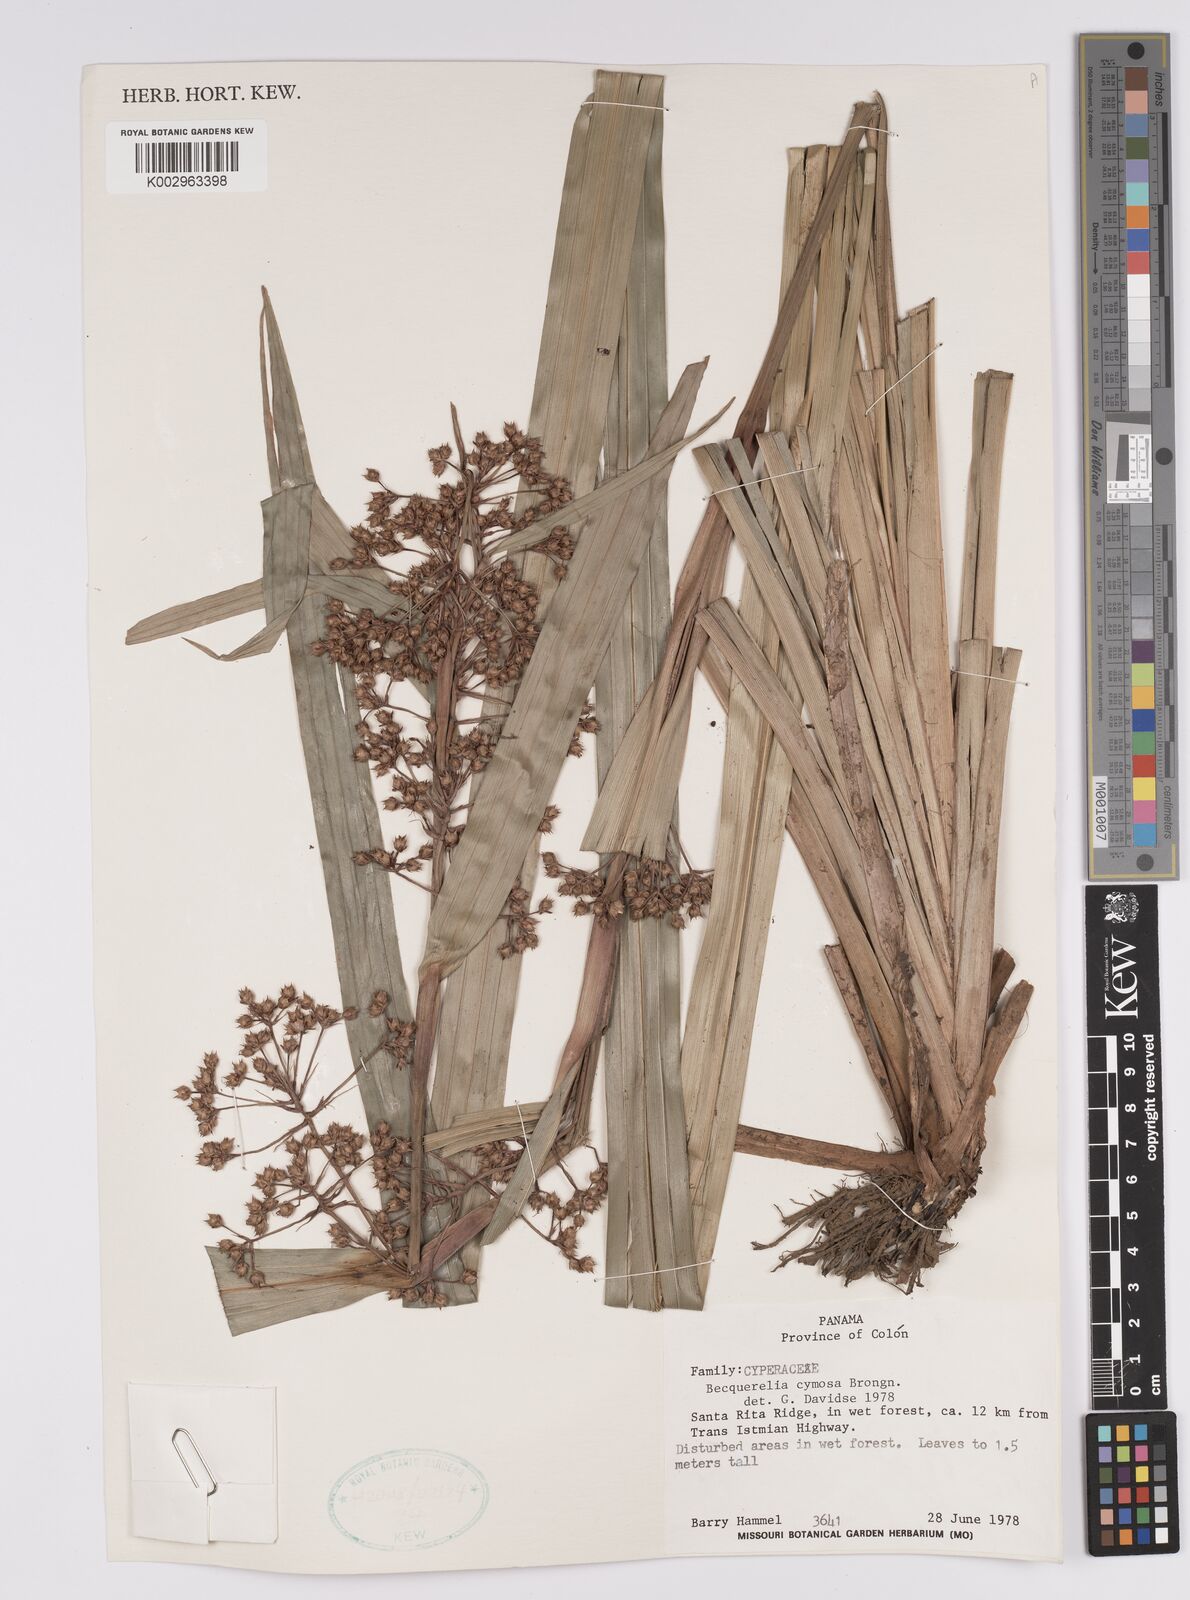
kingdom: Plantae
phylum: Tracheophyta
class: Liliopsida
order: Poales
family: Cyperaceae
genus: Becquerelia
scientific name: Becquerelia cymosa
